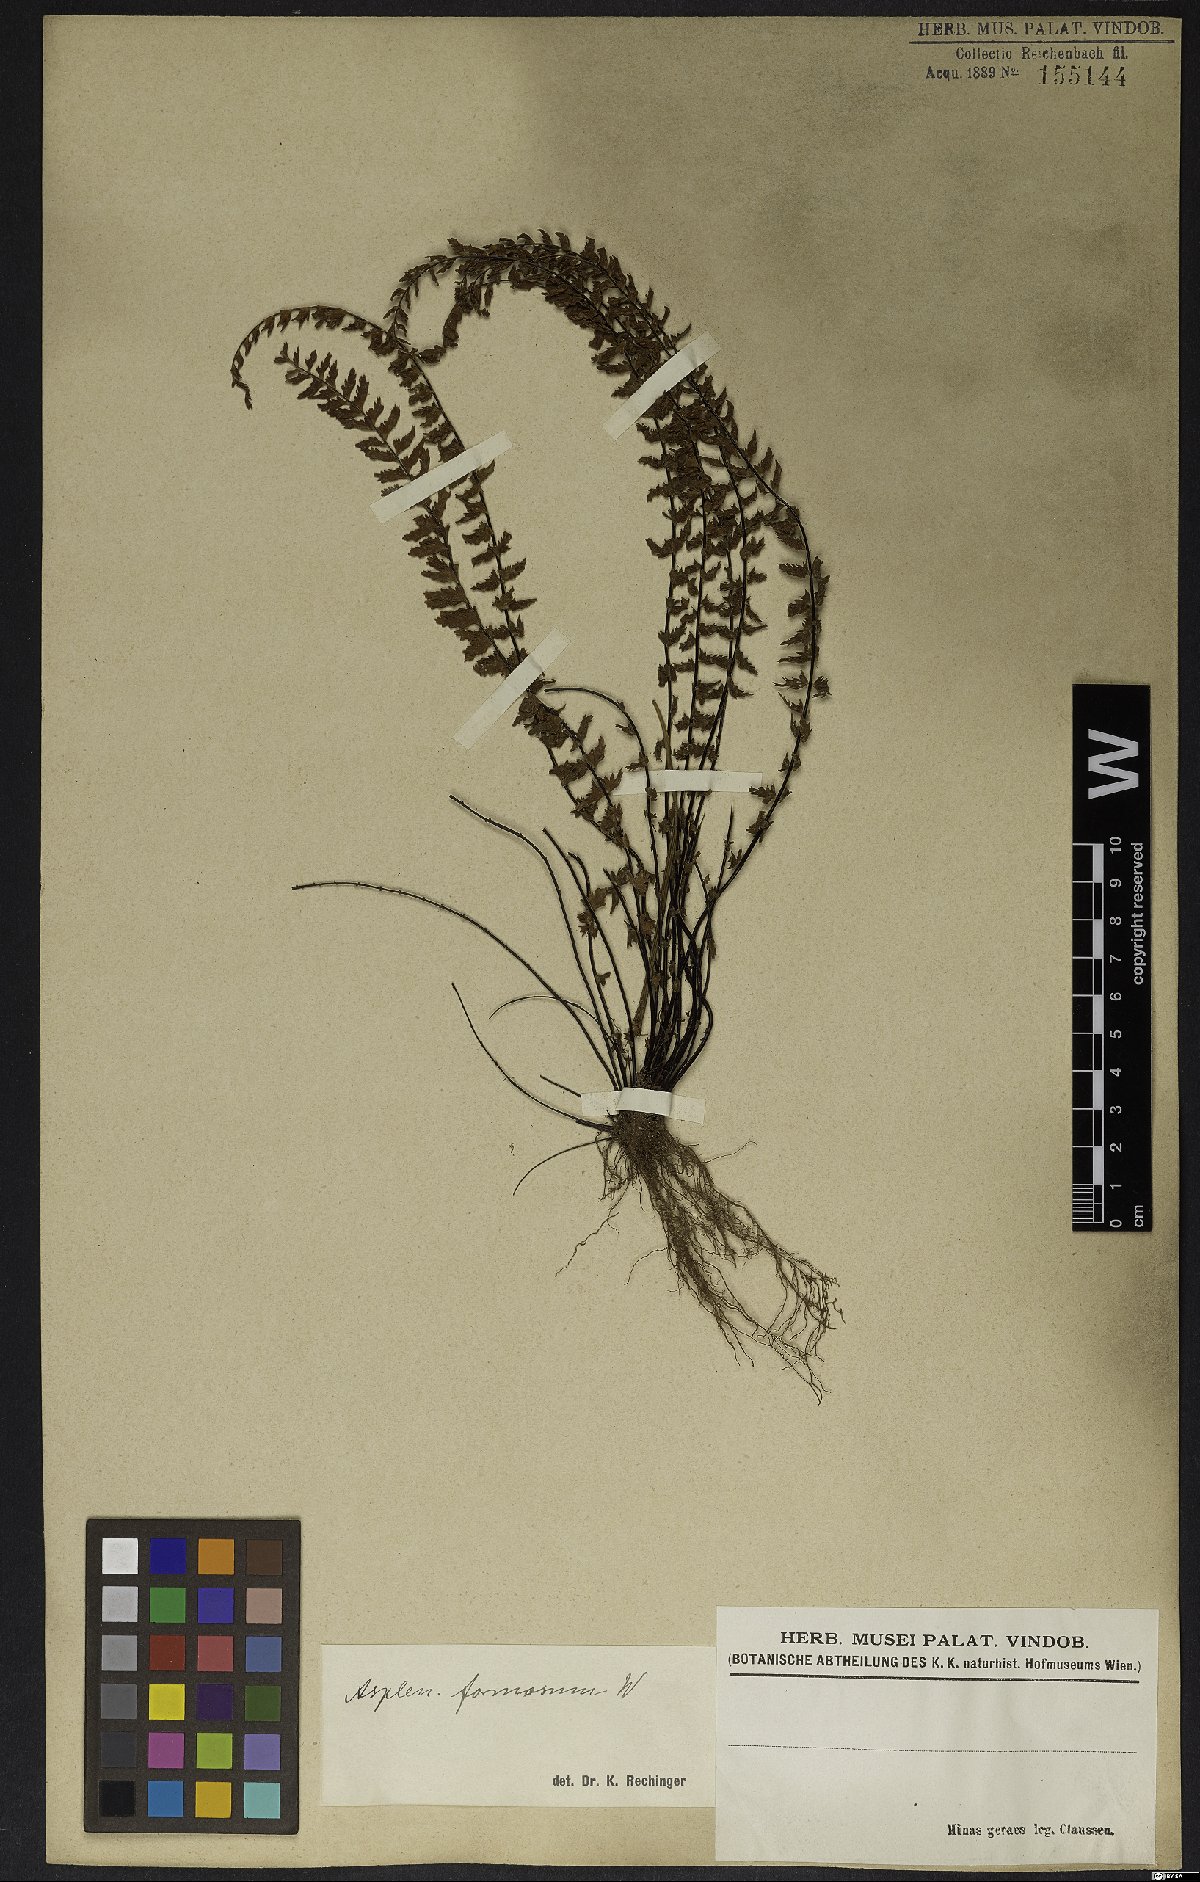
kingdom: Plantae
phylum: Tracheophyta
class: Polypodiopsida
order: Polypodiales
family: Aspleniaceae
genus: Asplenium
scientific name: Asplenium formosum
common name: Showy spleenwort
